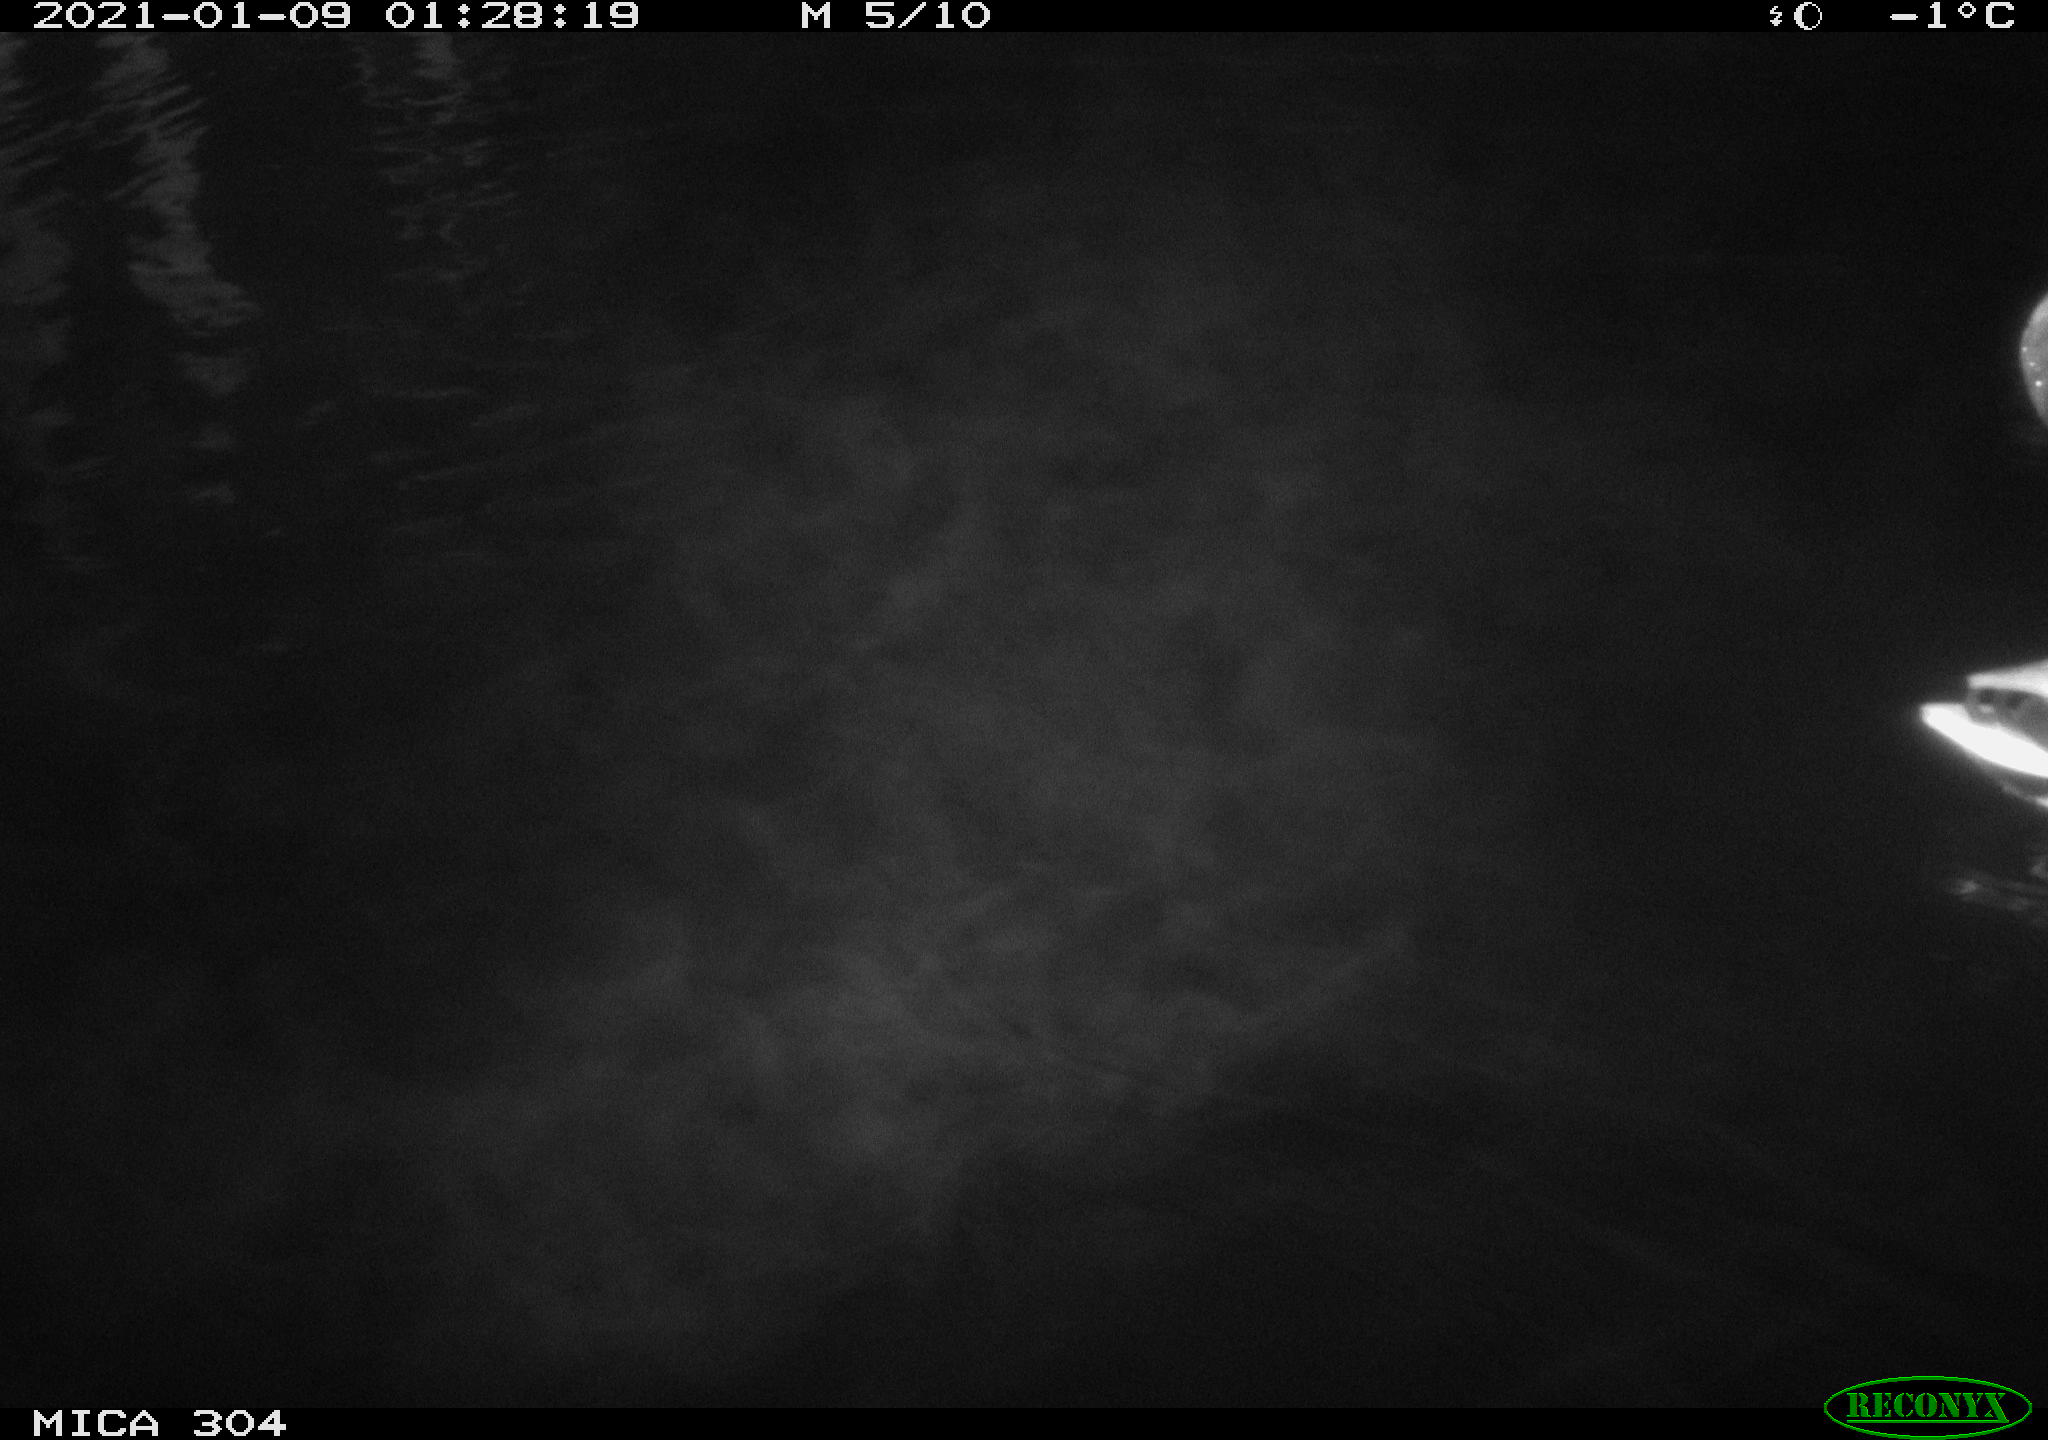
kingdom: Animalia
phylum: Chordata
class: Aves
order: Anseriformes
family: Anatidae
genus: Anas
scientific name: Anas platyrhynchos
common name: Mallard
